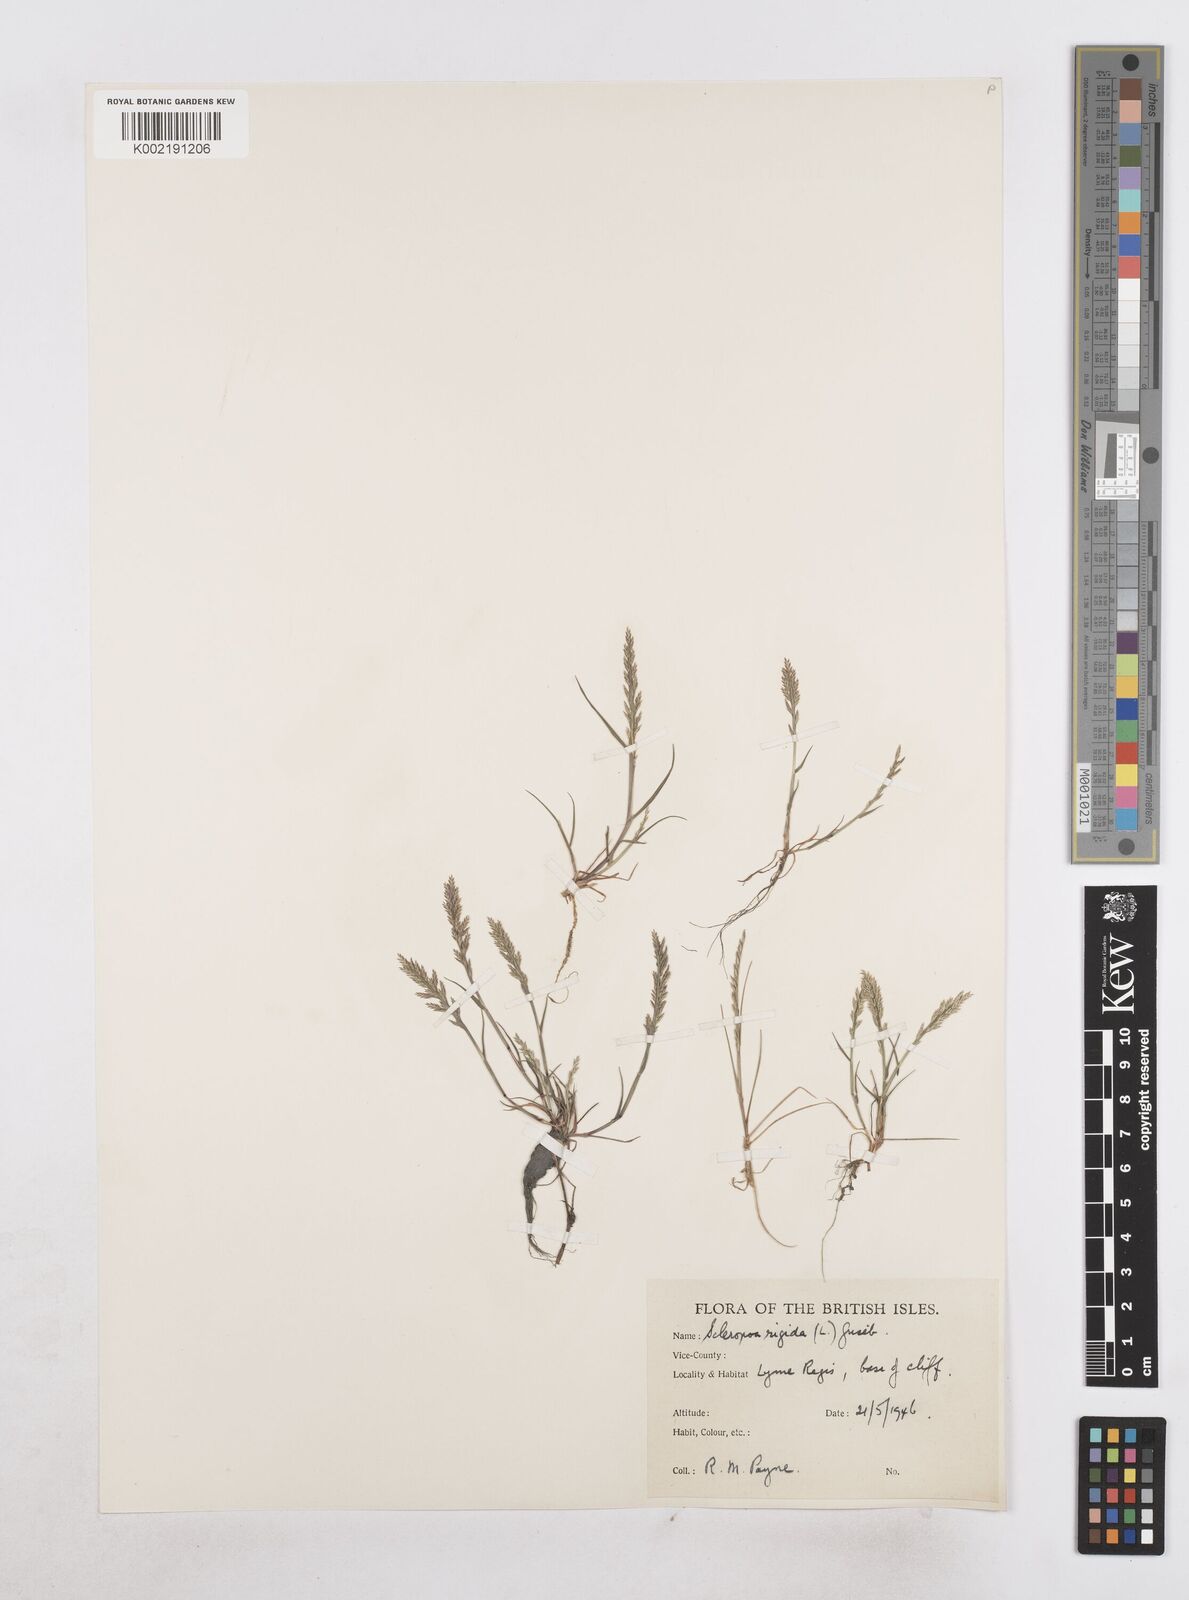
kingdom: Plantae
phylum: Tracheophyta
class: Liliopsida
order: Poales
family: Poaceae
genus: Catapodium
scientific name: Catapodium rigidum
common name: Fern-grass
